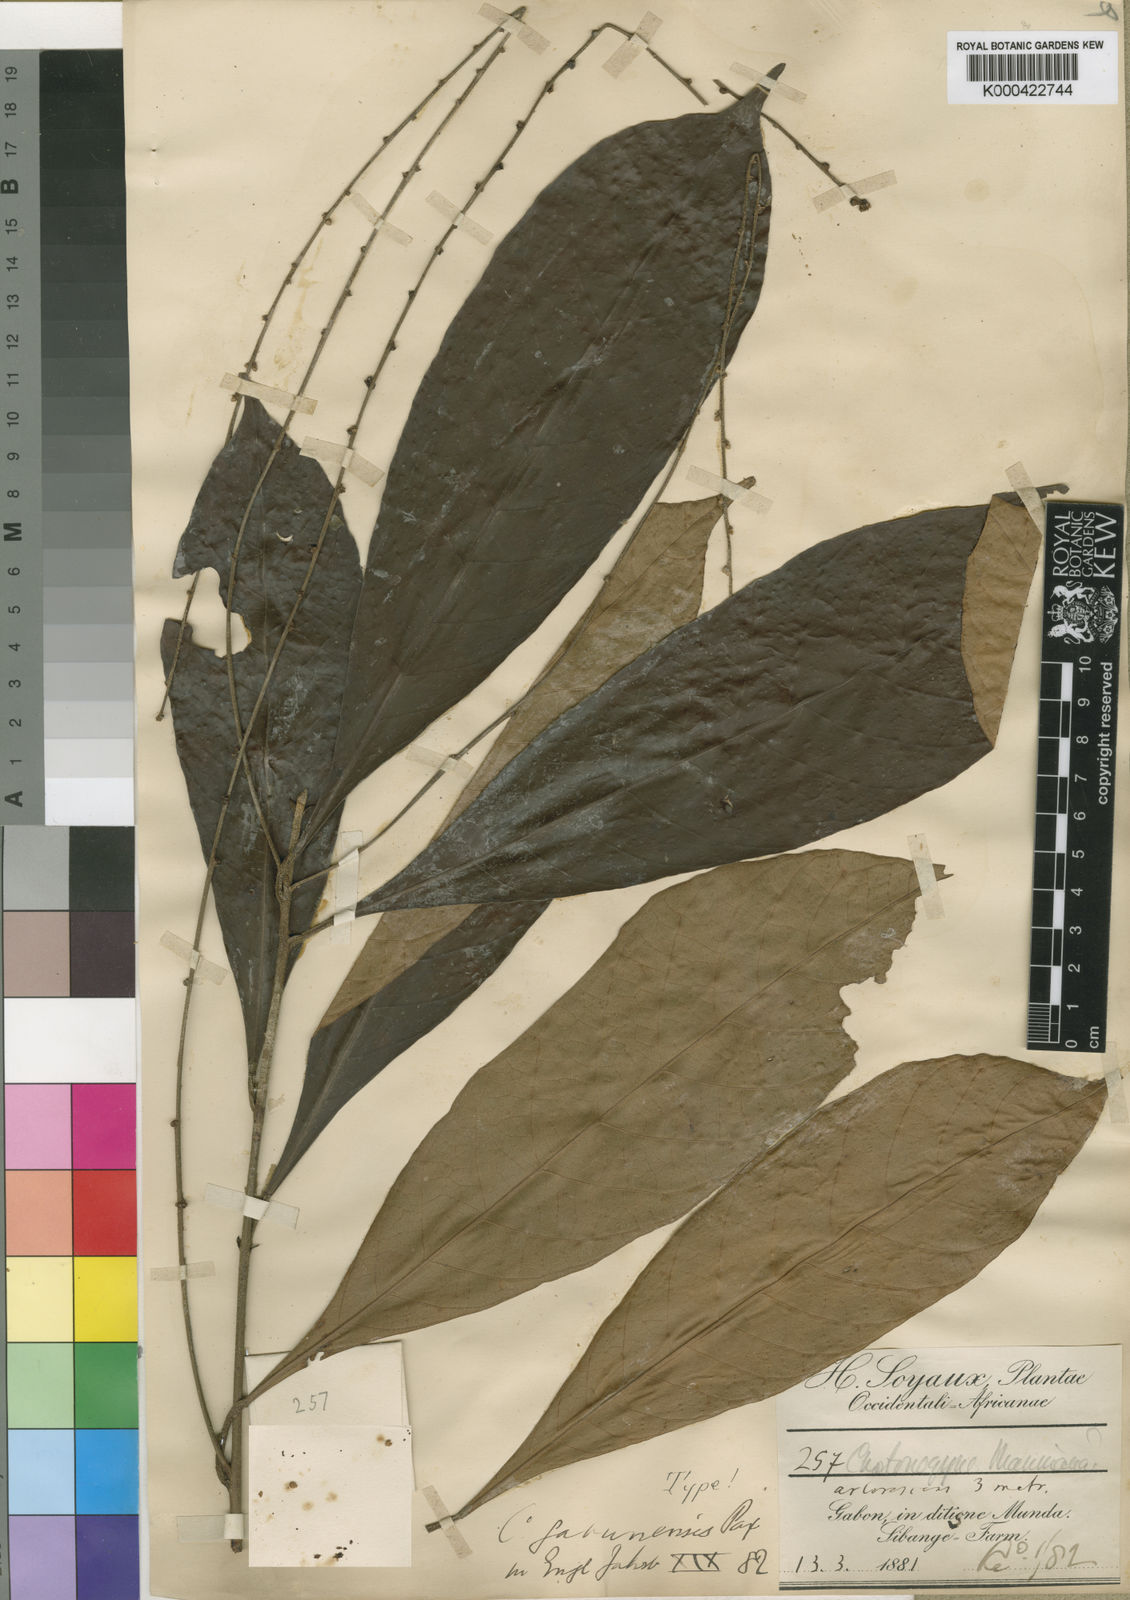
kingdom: Plantae
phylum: Tracheophyta
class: Magnoliopsida
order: Malpighiales
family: Euphorbiaceae
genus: Crotonogyne
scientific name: Crotonogyne gabunensis
